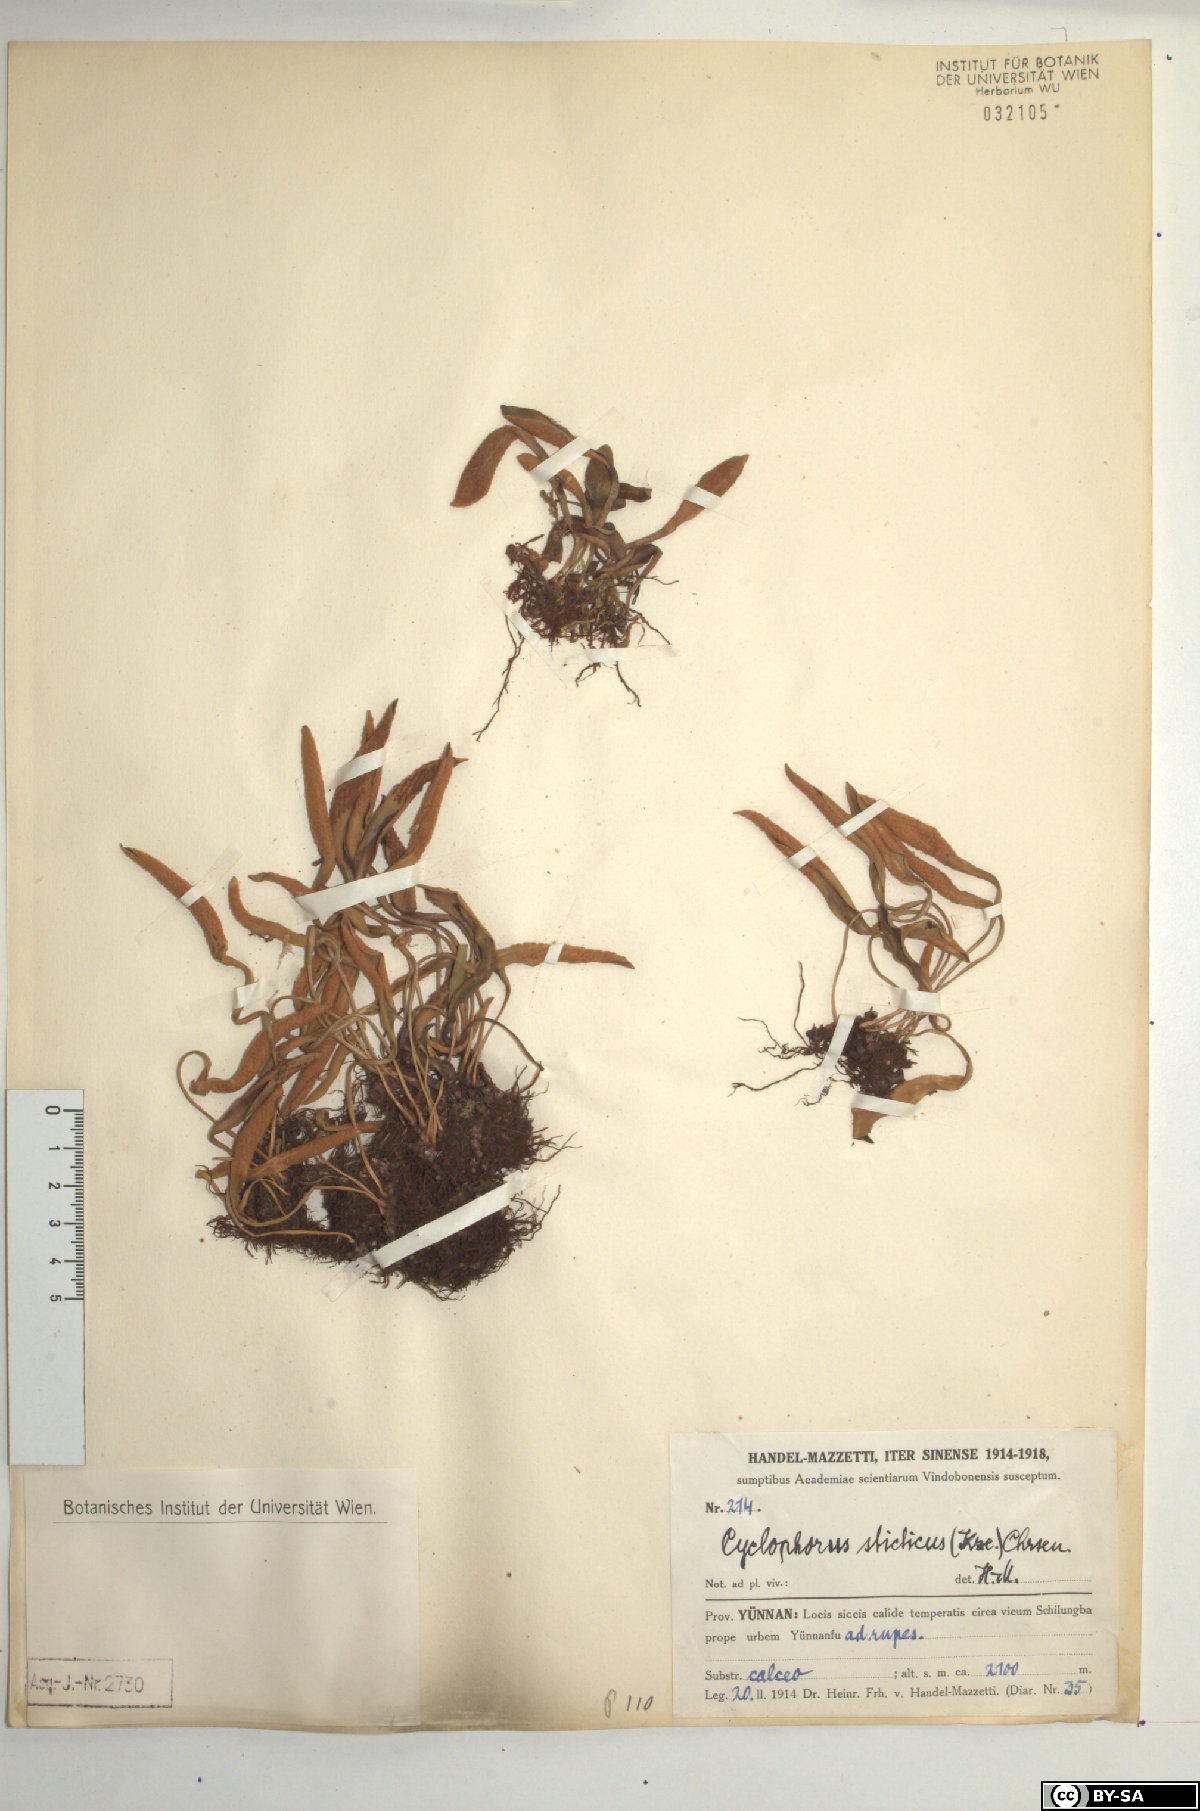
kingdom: Plantae
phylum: Tracheophyta
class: Polypodiopsida
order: Polypodiales
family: Polypodiaceae
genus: Pyrrosia
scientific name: Pyrrosia porosa
